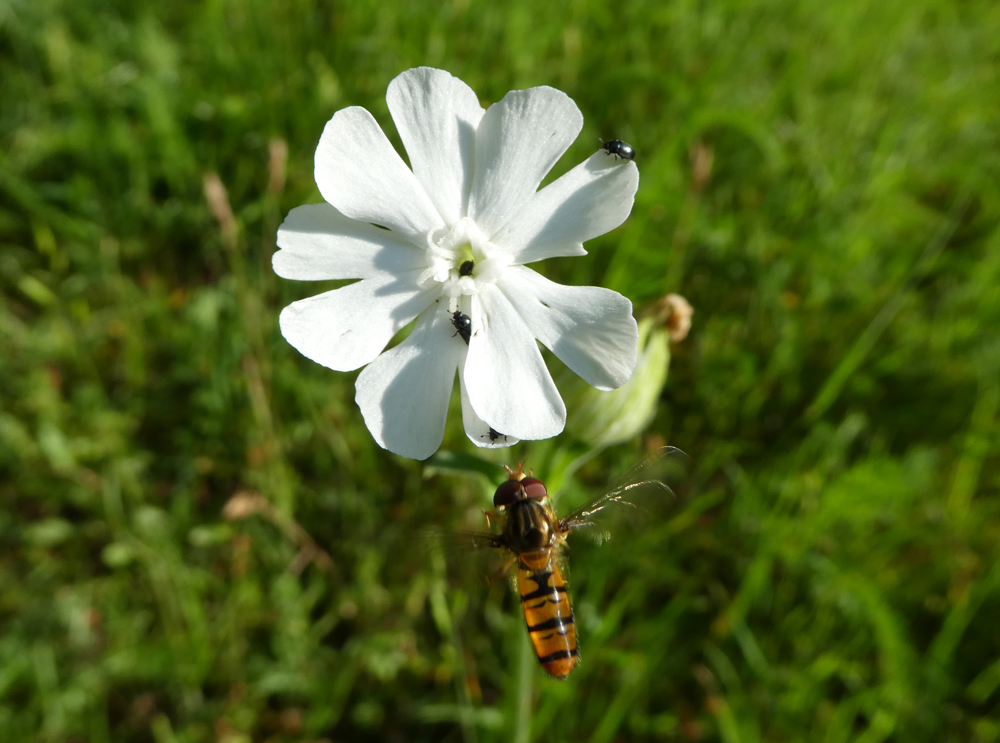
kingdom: Plantae
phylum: Tracheophyta
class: Magnoliopsida
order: Caryophyllales
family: Caryophyllaceae
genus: Silene
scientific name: Silene latifolia
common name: White campion
